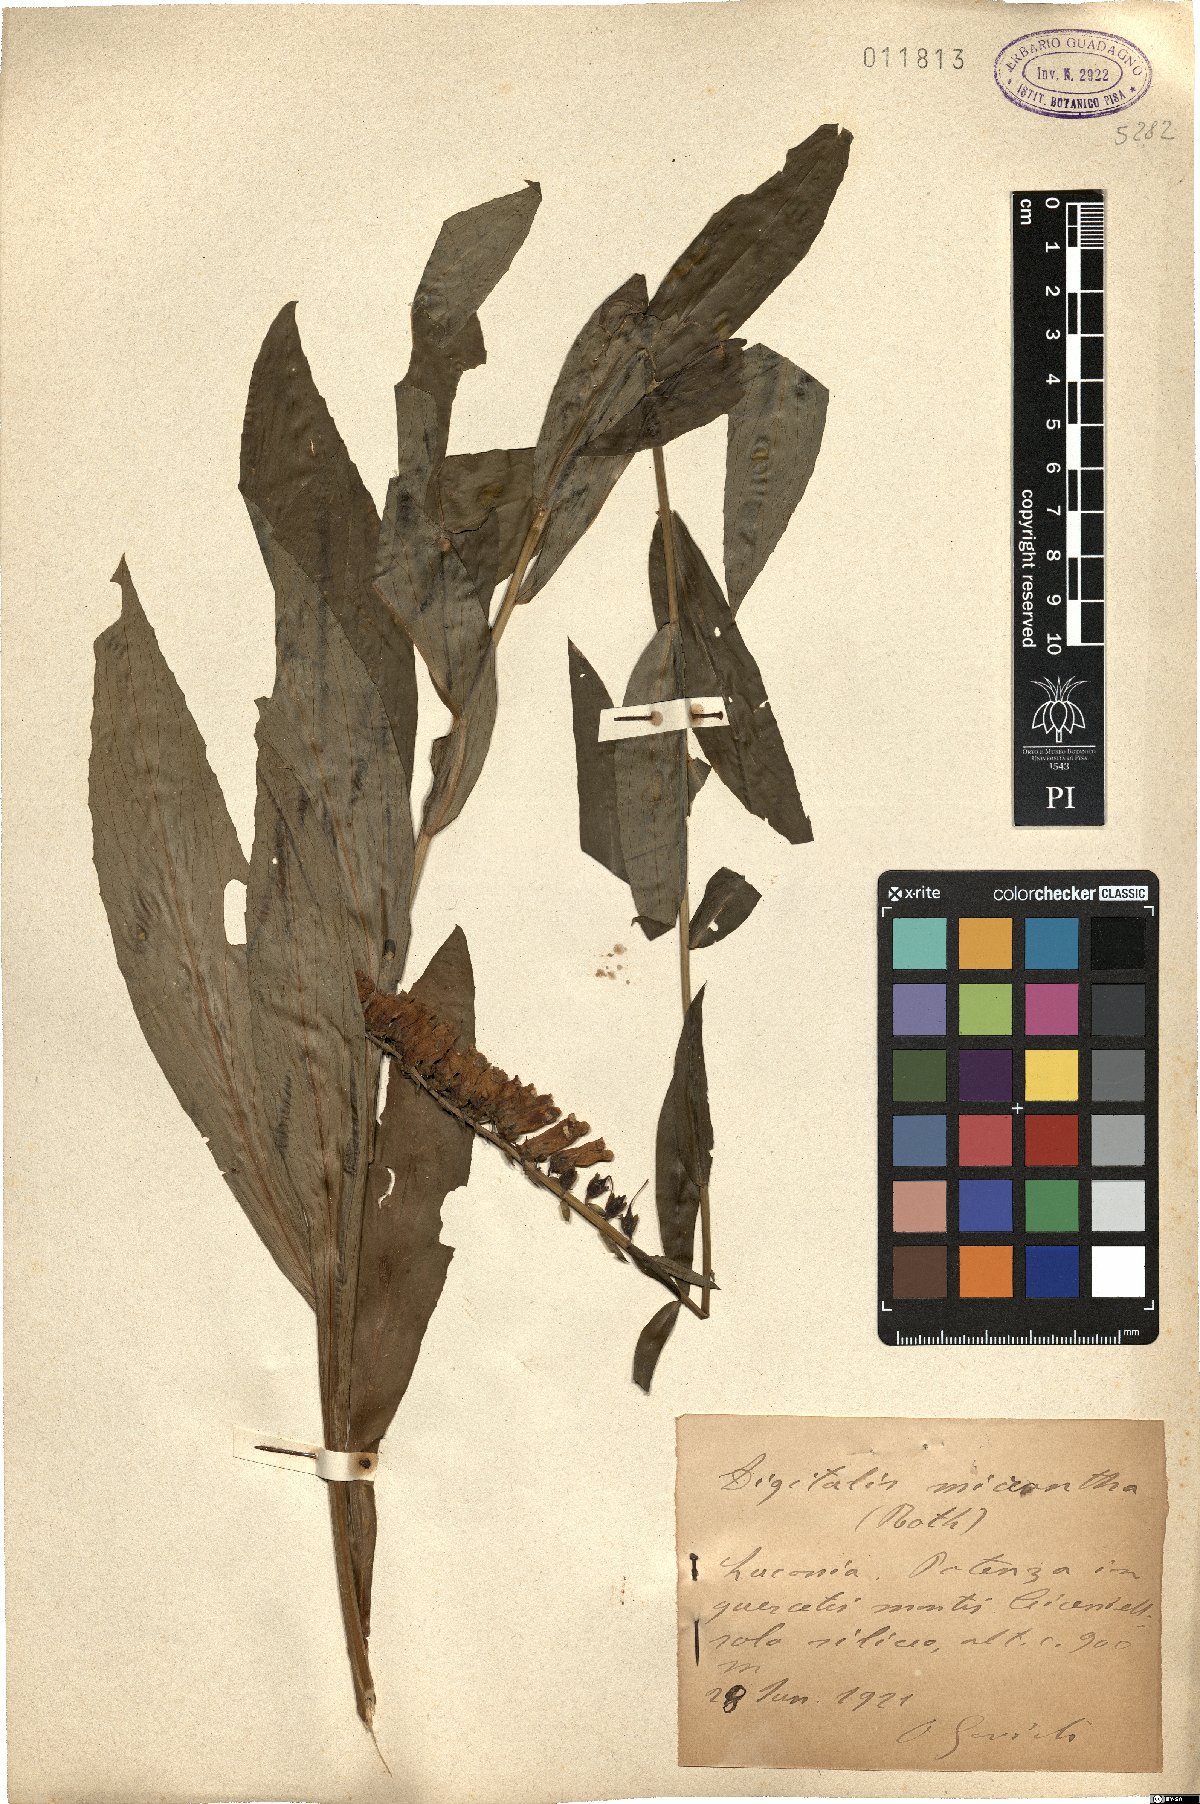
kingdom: Plantae
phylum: Tracheophyta
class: Magnoliopsida
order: Lamiales
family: Plantaginaceae
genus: Digitalis
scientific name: Digitalis lutea
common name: Straw foxglove
